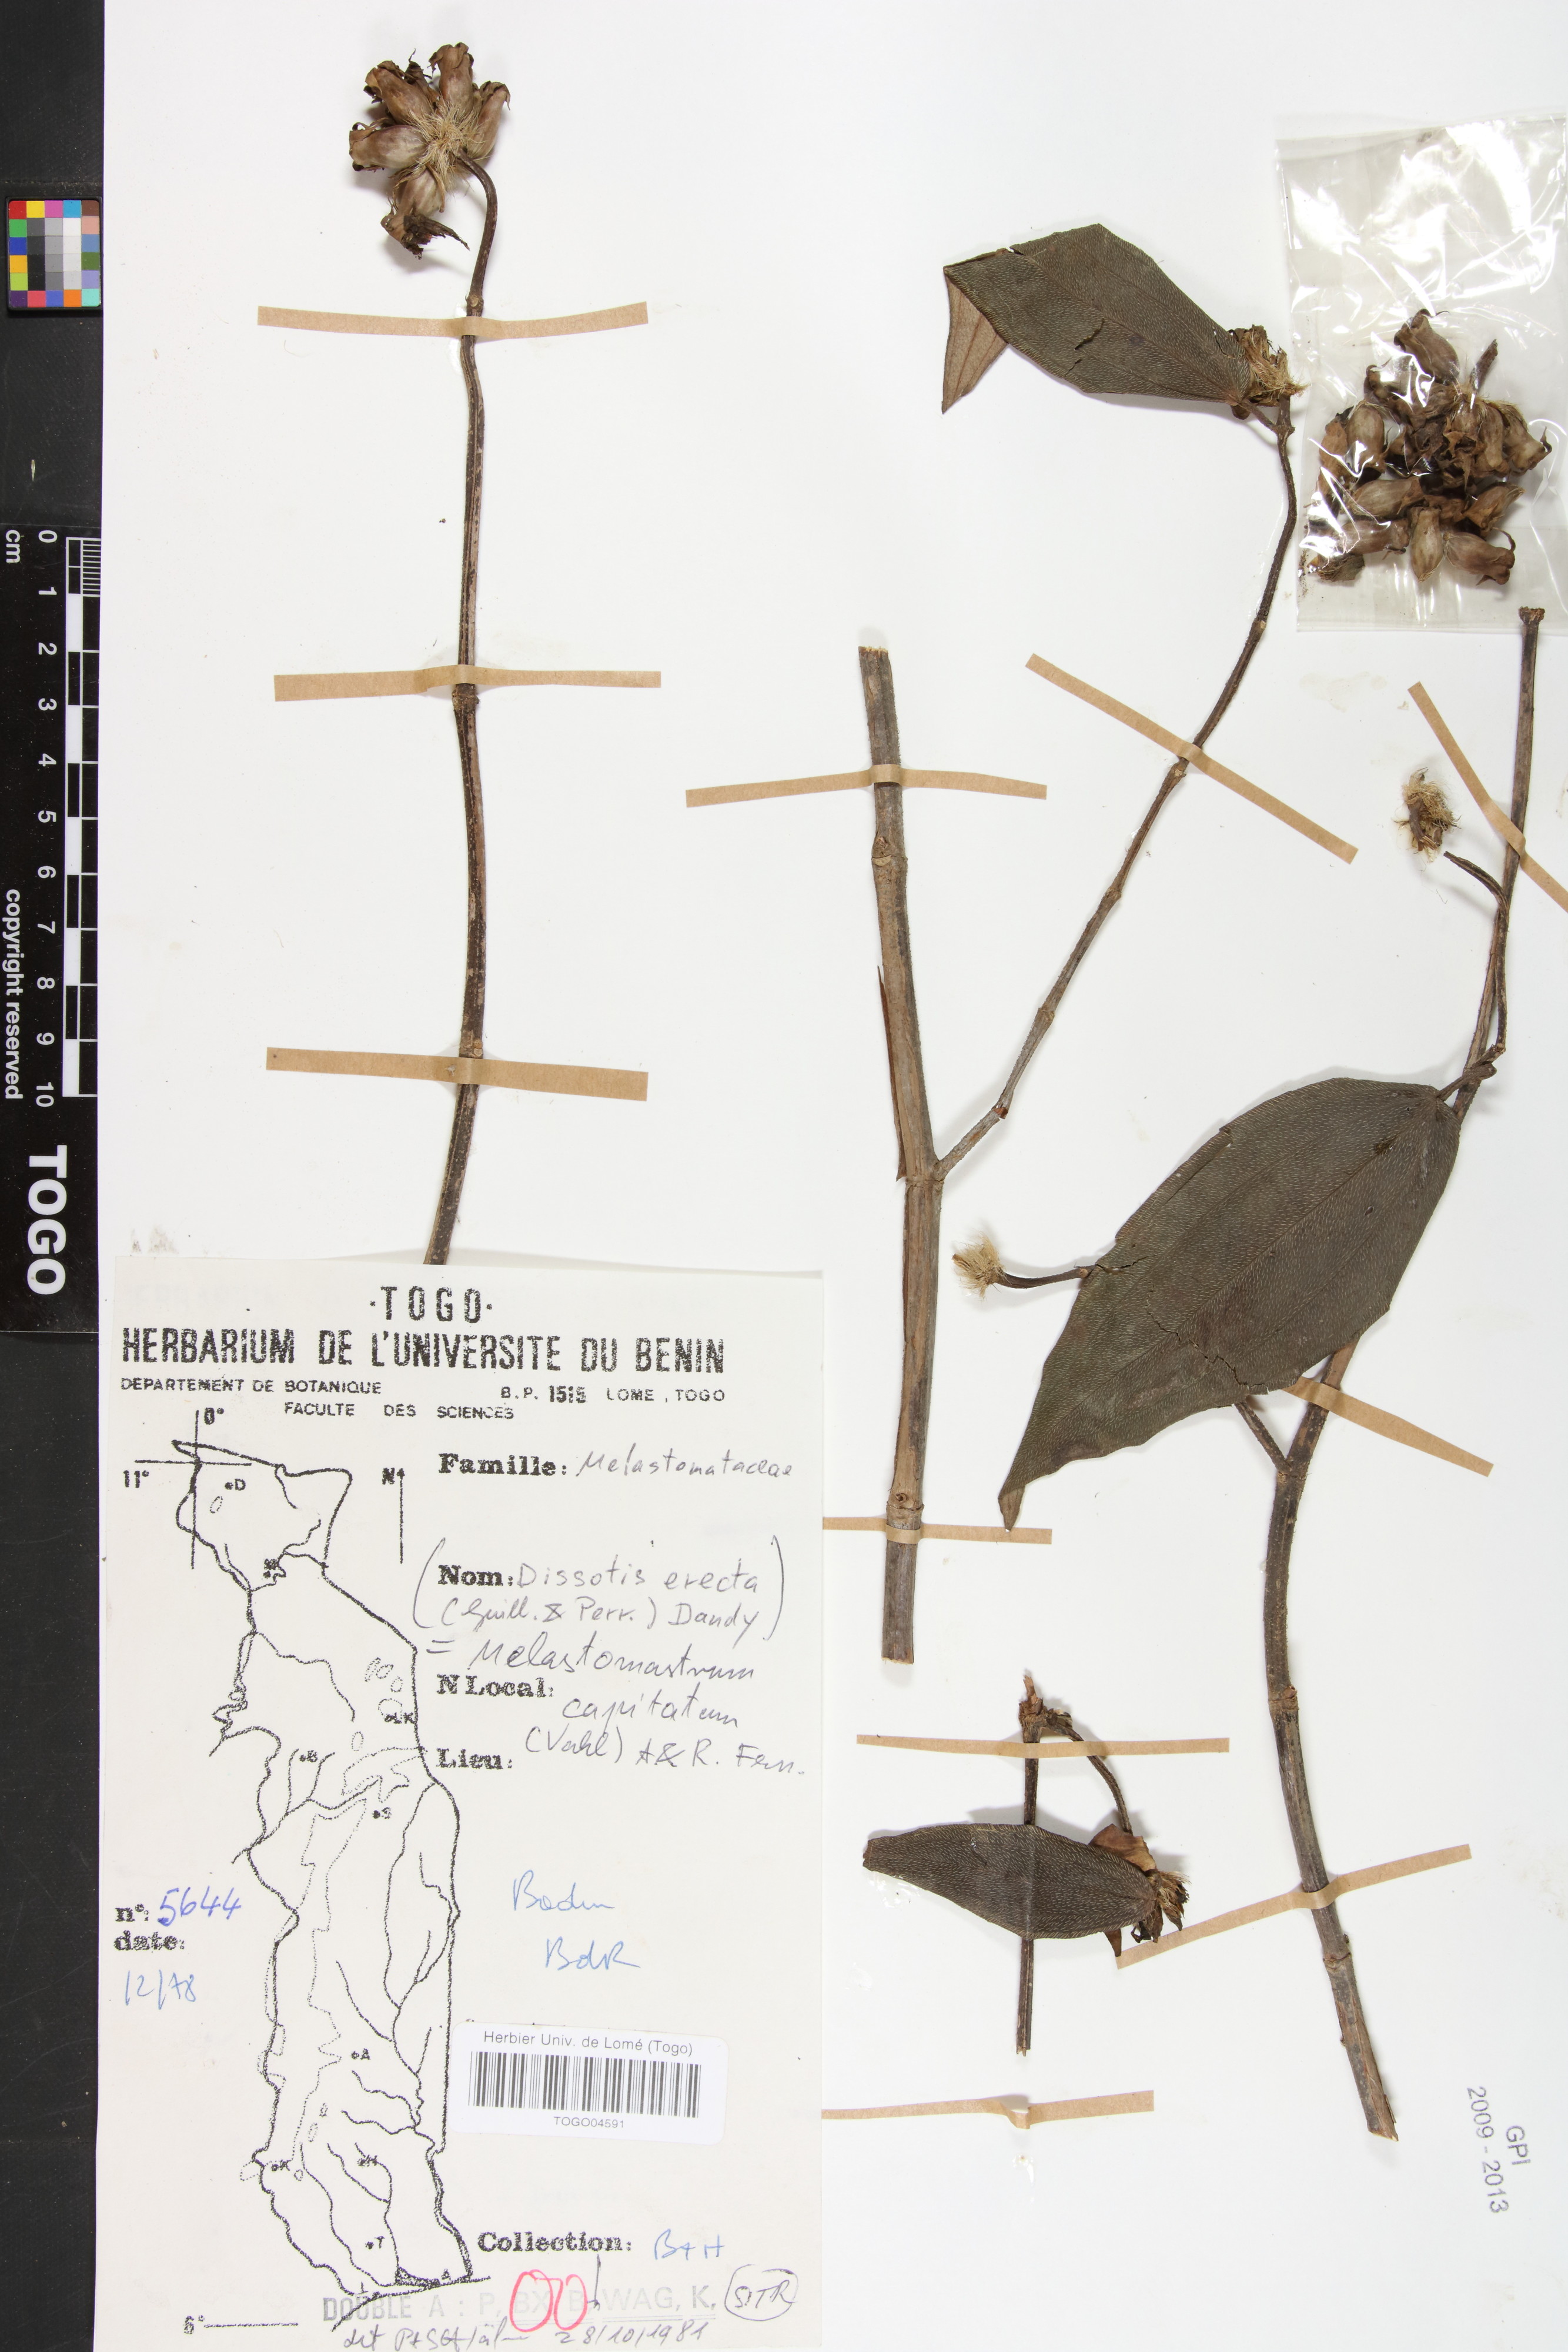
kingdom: Plantae
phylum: Tracheophyta
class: Magnoliopsida
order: Myrtales
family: Melastomataceae
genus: Melastomastrum
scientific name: Melastomastrum capitatum
